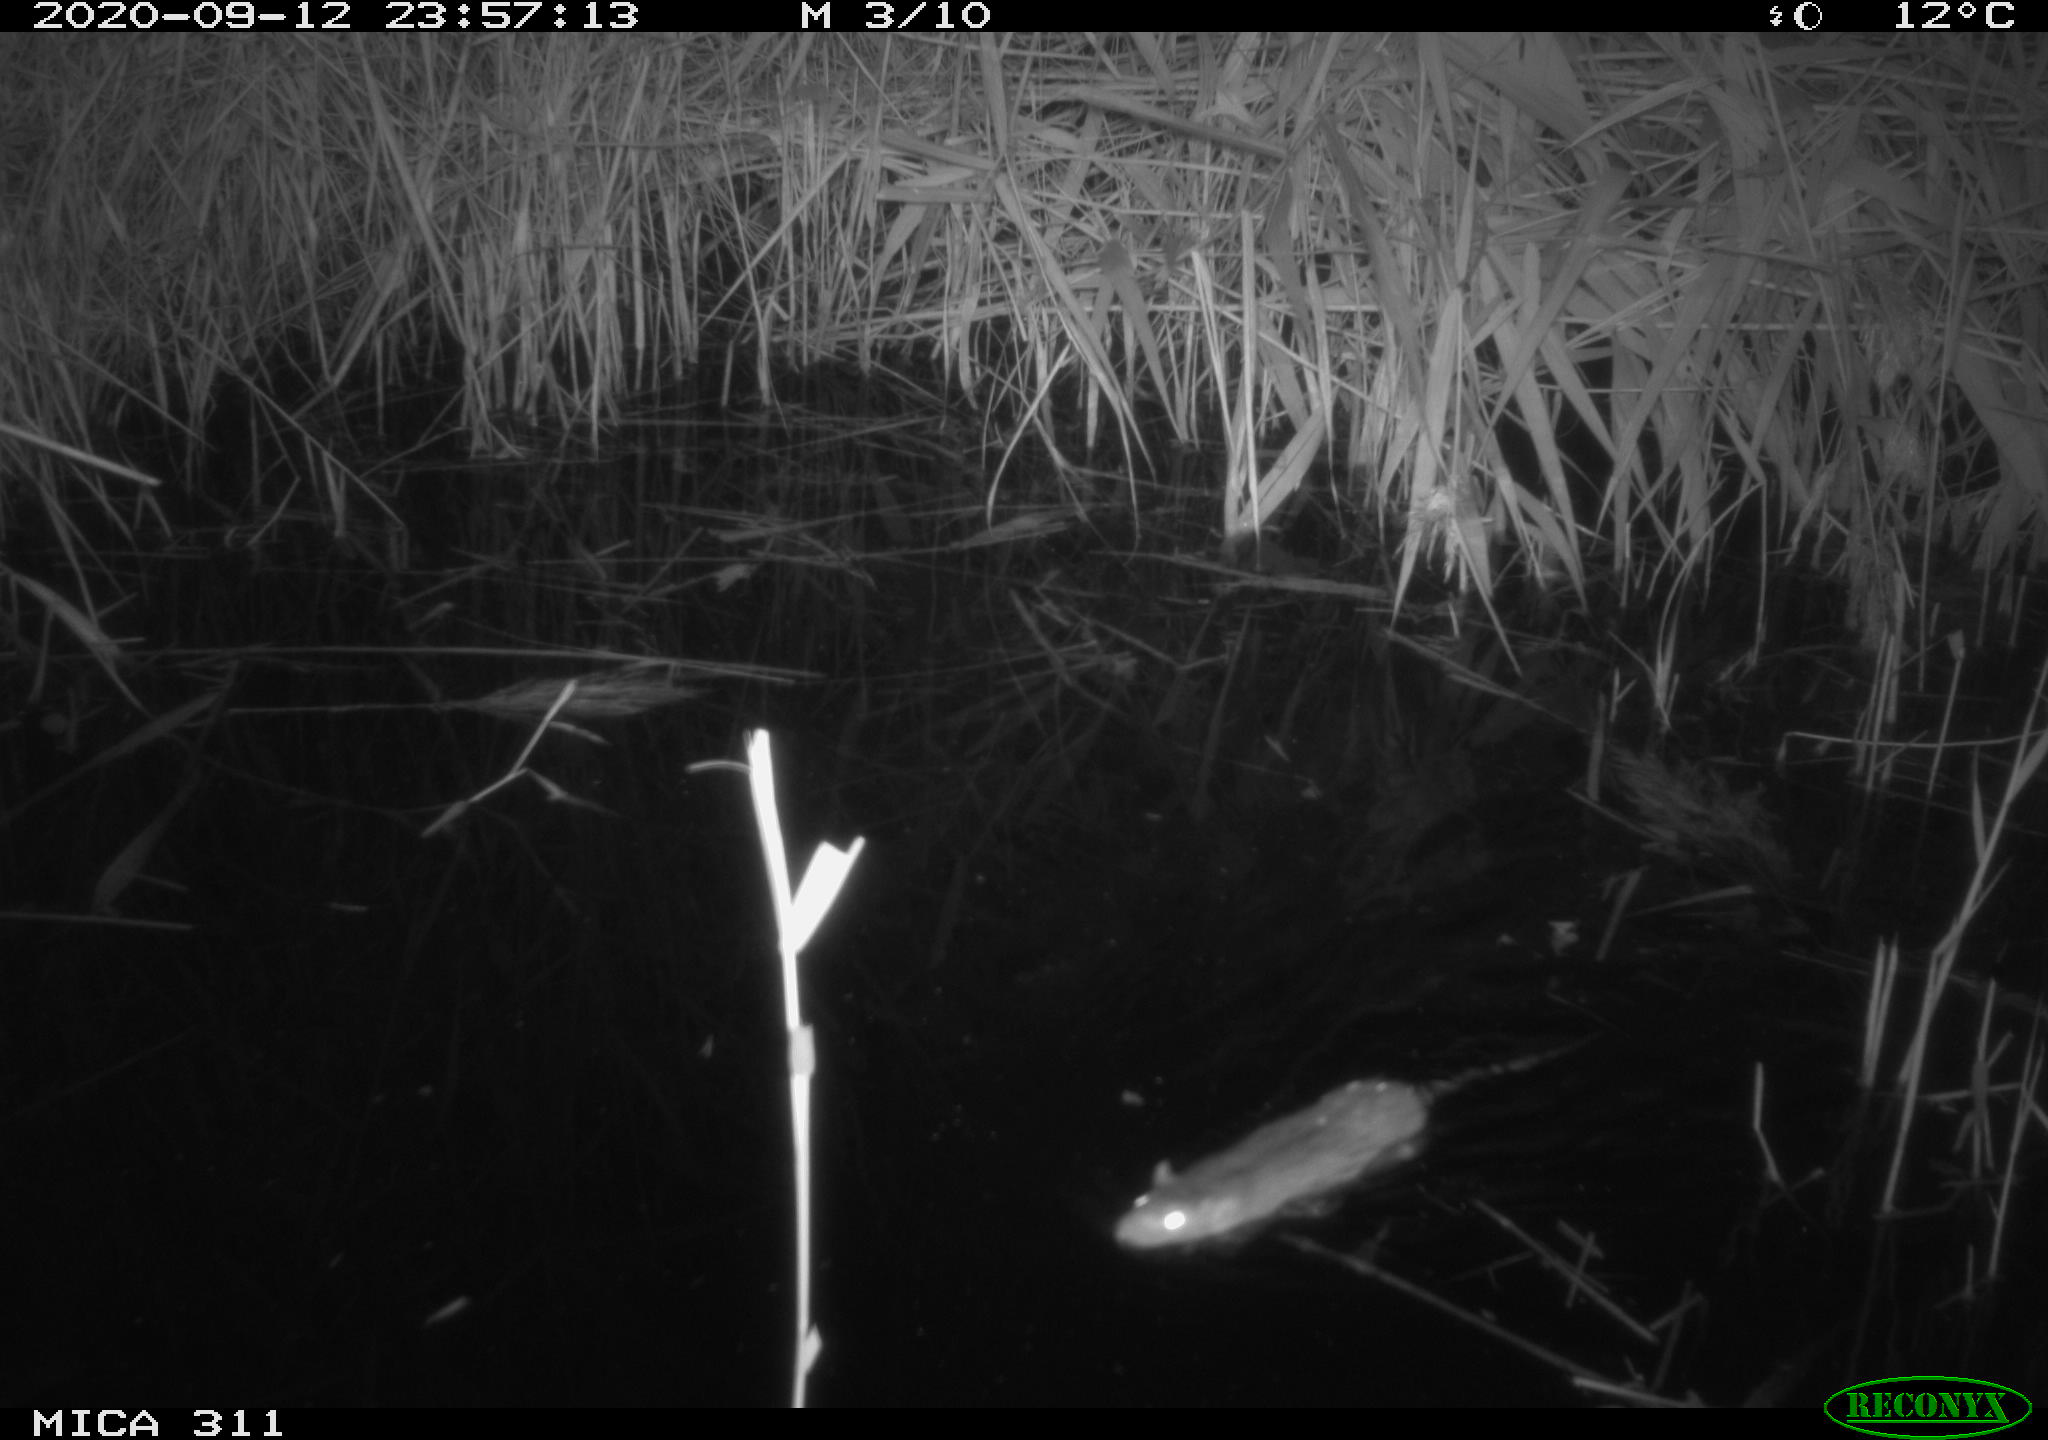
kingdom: Animalia
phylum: Chordata
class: Mammalia
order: Rodentia
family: Muridae
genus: Rattus
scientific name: Rattus norvegicus
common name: Brown rat
